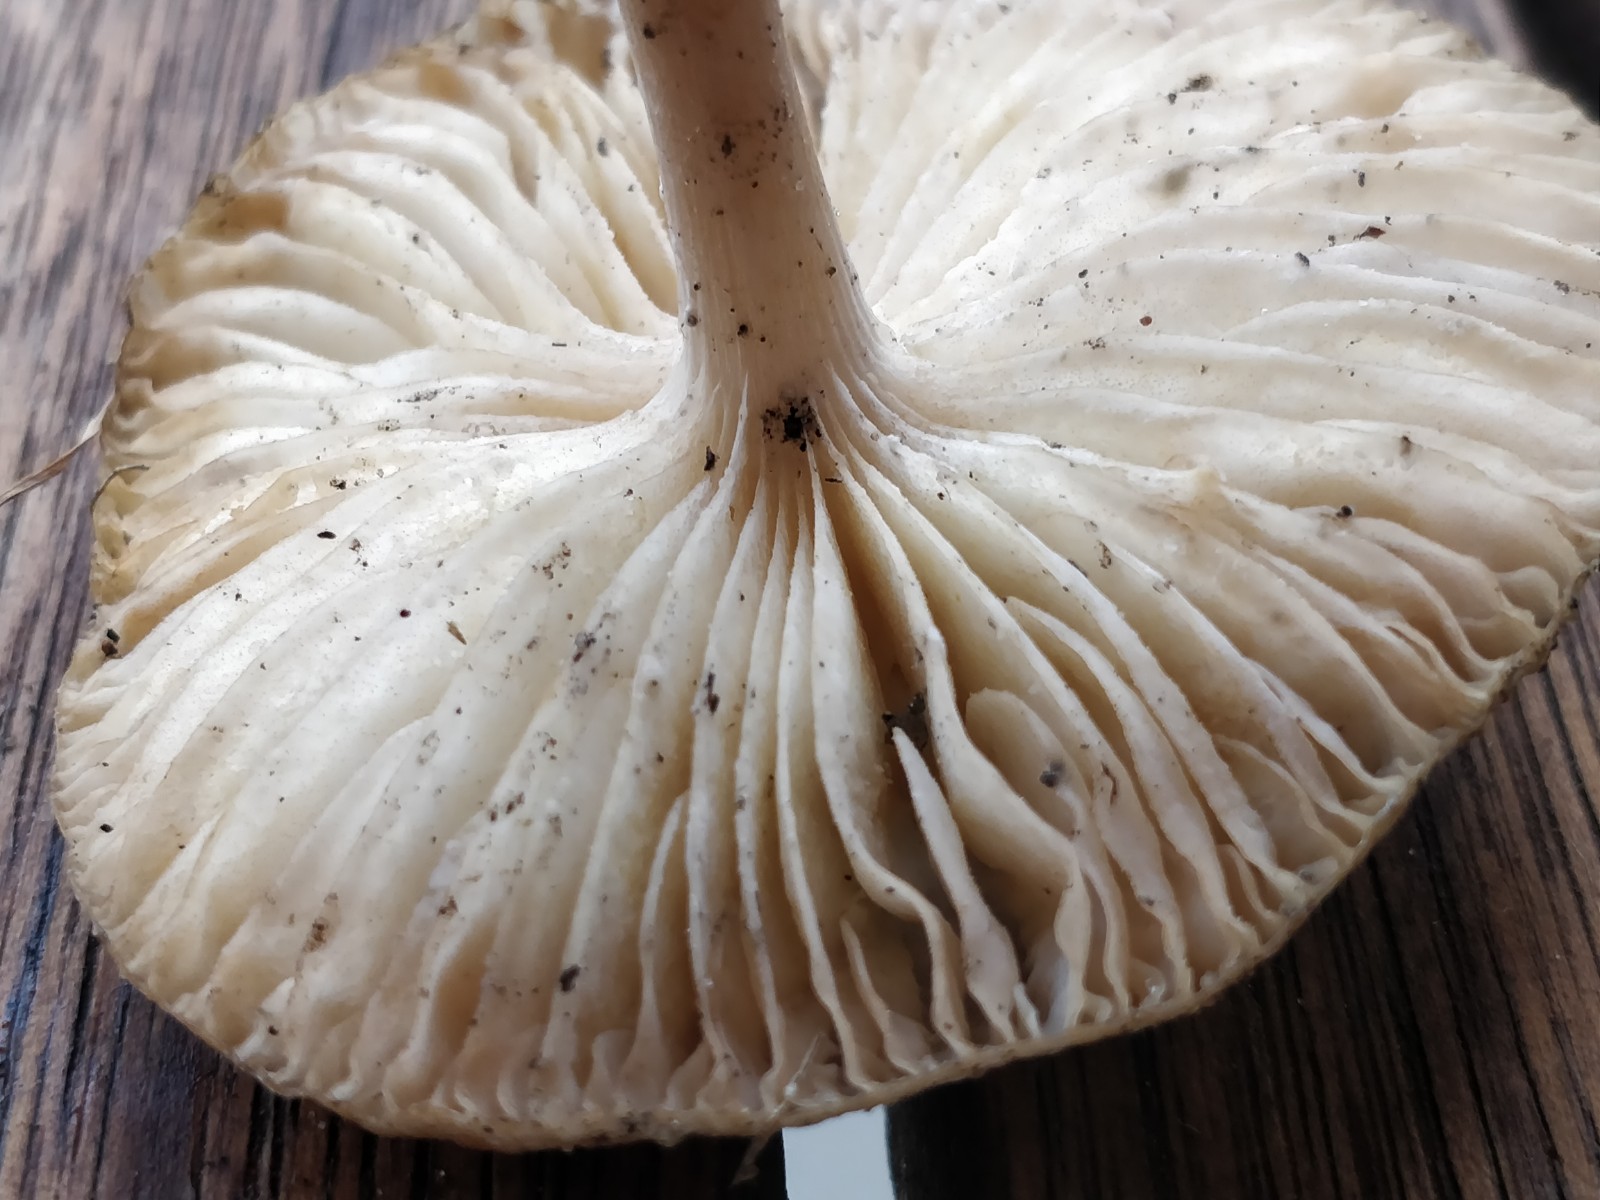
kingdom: Fungi
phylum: Basidiomycota
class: Agaricomycetes
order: Agaricales
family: Physalacriaceae
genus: Hymenopellis
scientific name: Hymenopellis radicata
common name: almindelig pælerodshat
